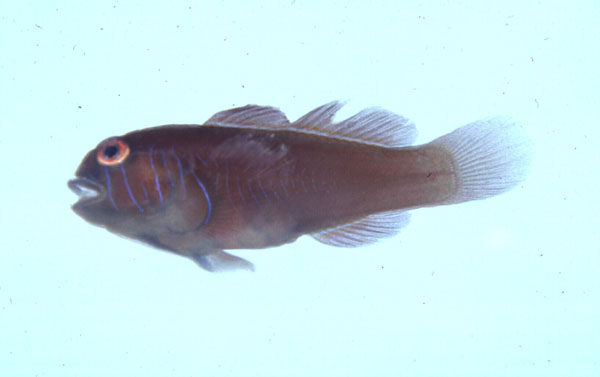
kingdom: Animalia
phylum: Chordata
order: Perciformes
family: Gobiidae
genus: Gobiodon
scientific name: Gobiodon rivulatus
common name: Rippled coralgoby
